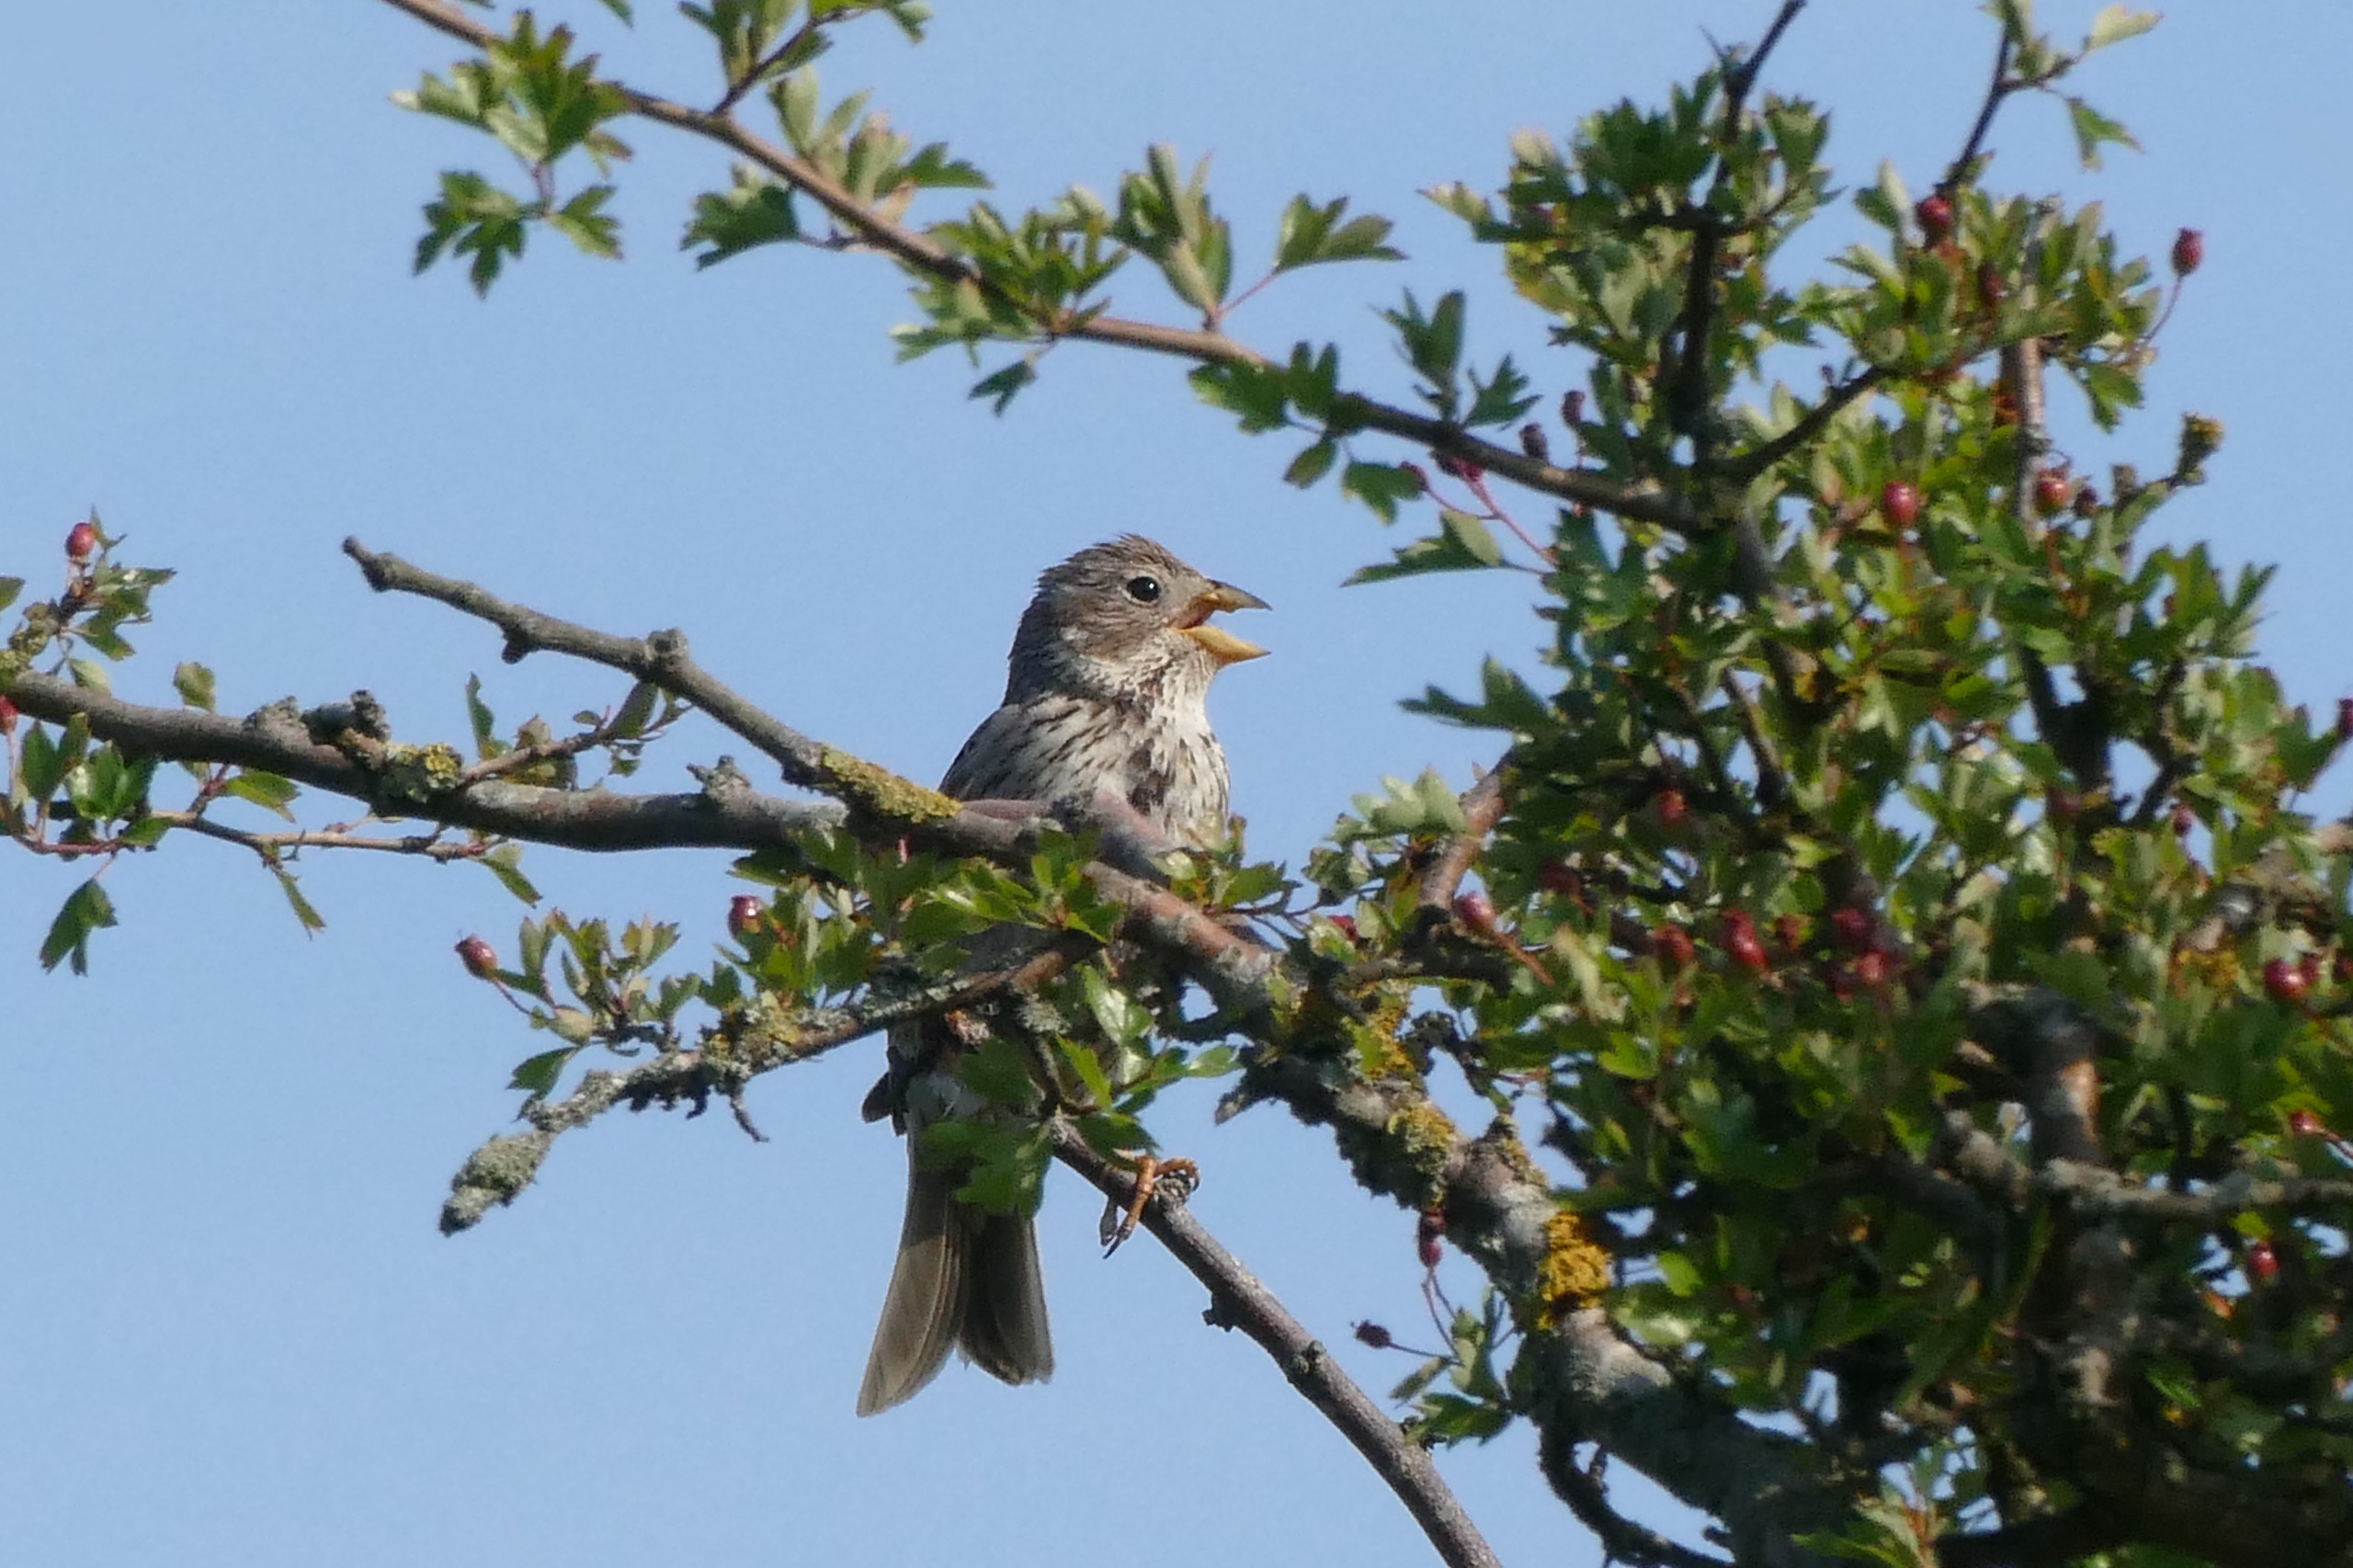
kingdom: Animalia
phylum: Chordata
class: Aves
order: Passeriformes
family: Emberizidae
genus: Emberiza
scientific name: Emberiza calandra
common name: Bomlærke
